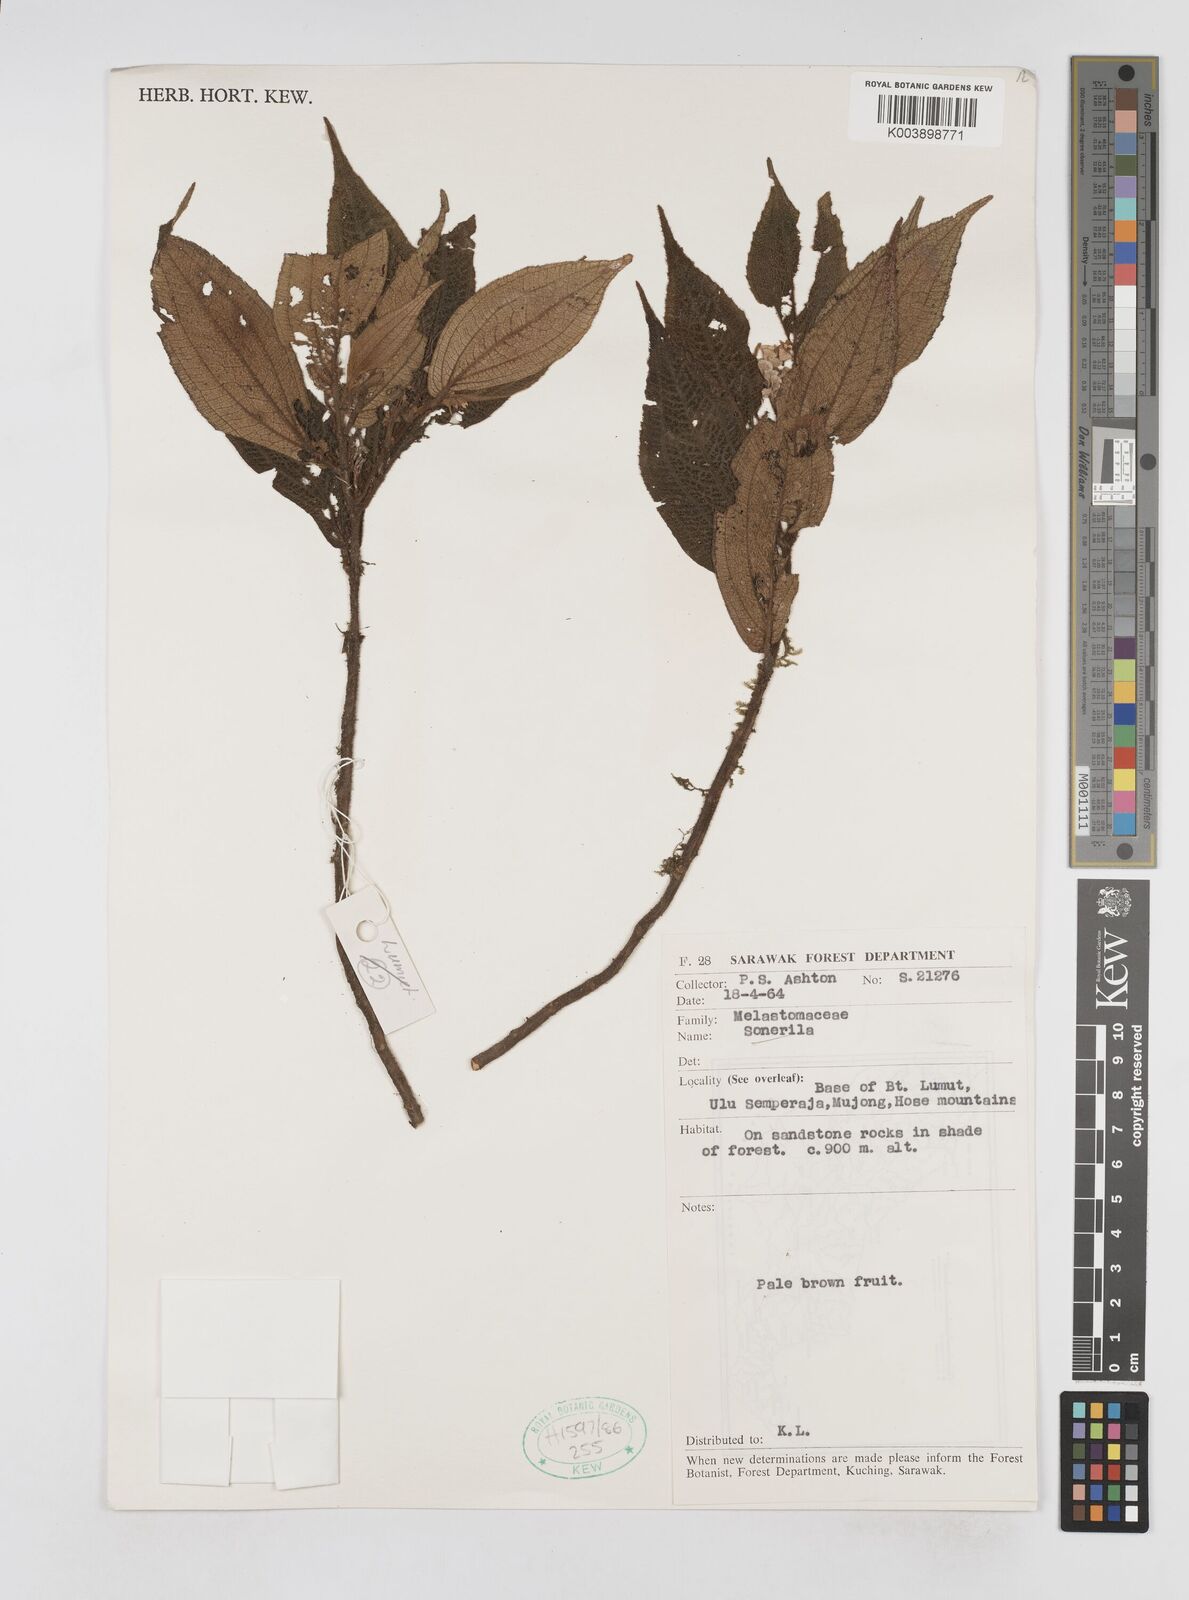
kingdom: Plantae
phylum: Tracheophyta
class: Magnoliopsida
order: Myrtales
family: Melastomataceae
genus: Sonerila
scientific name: Sonerila
